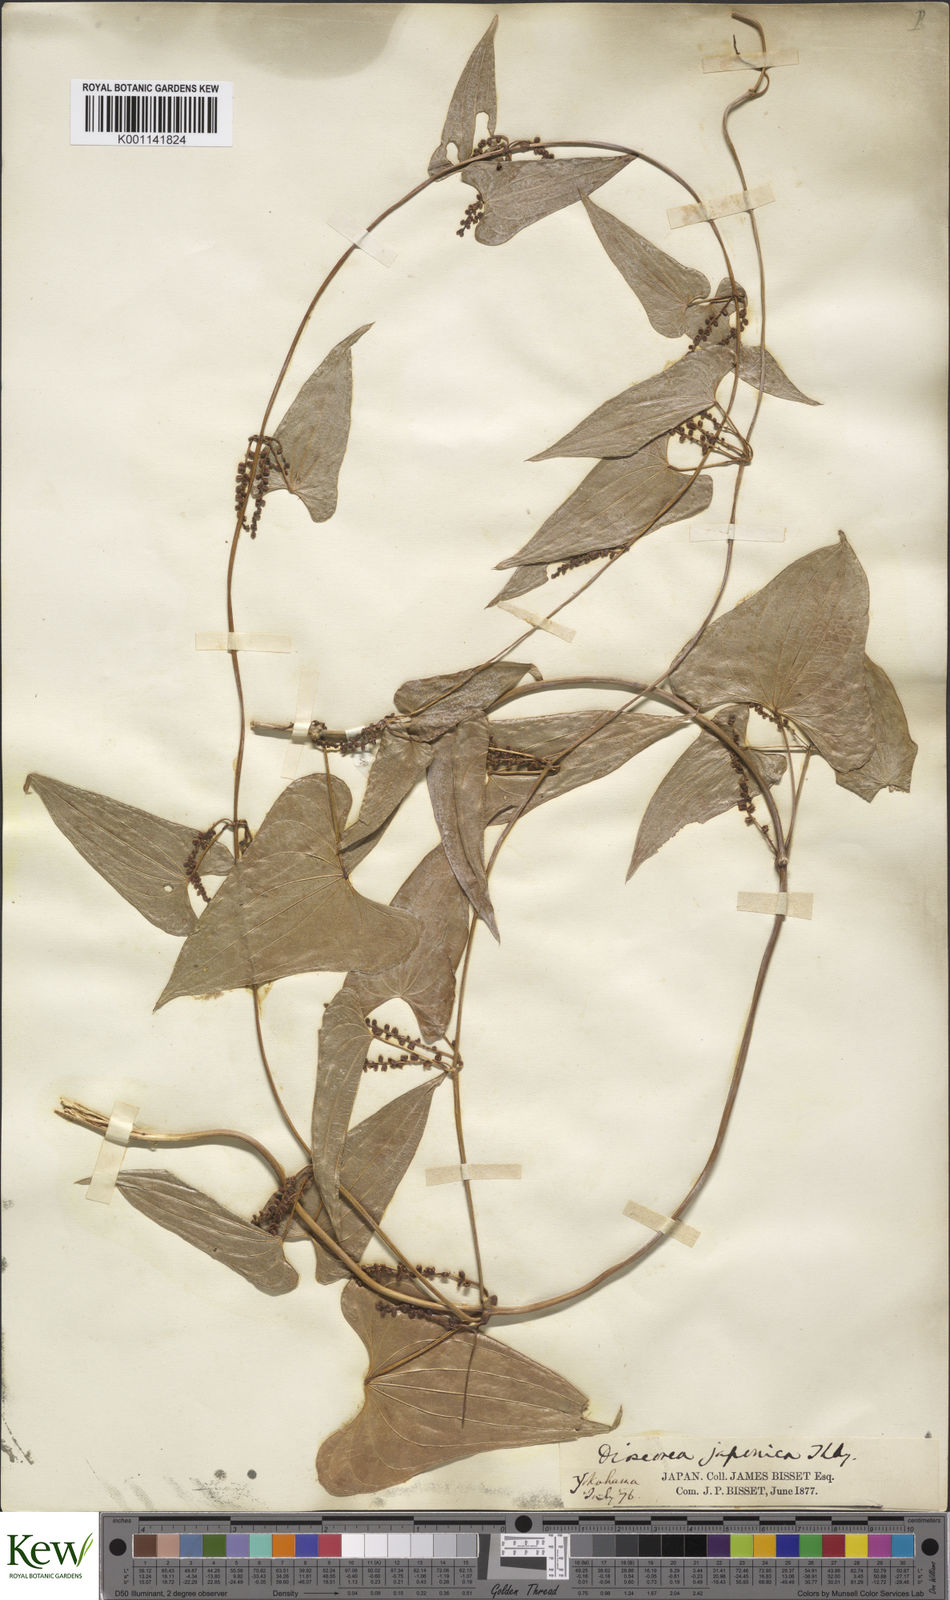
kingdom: Plantae
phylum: Tracheophyta
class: Liliopsida
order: Dioscoreales
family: Dioscoreaceae
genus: Dioscorea
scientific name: Dioscorea japonica
